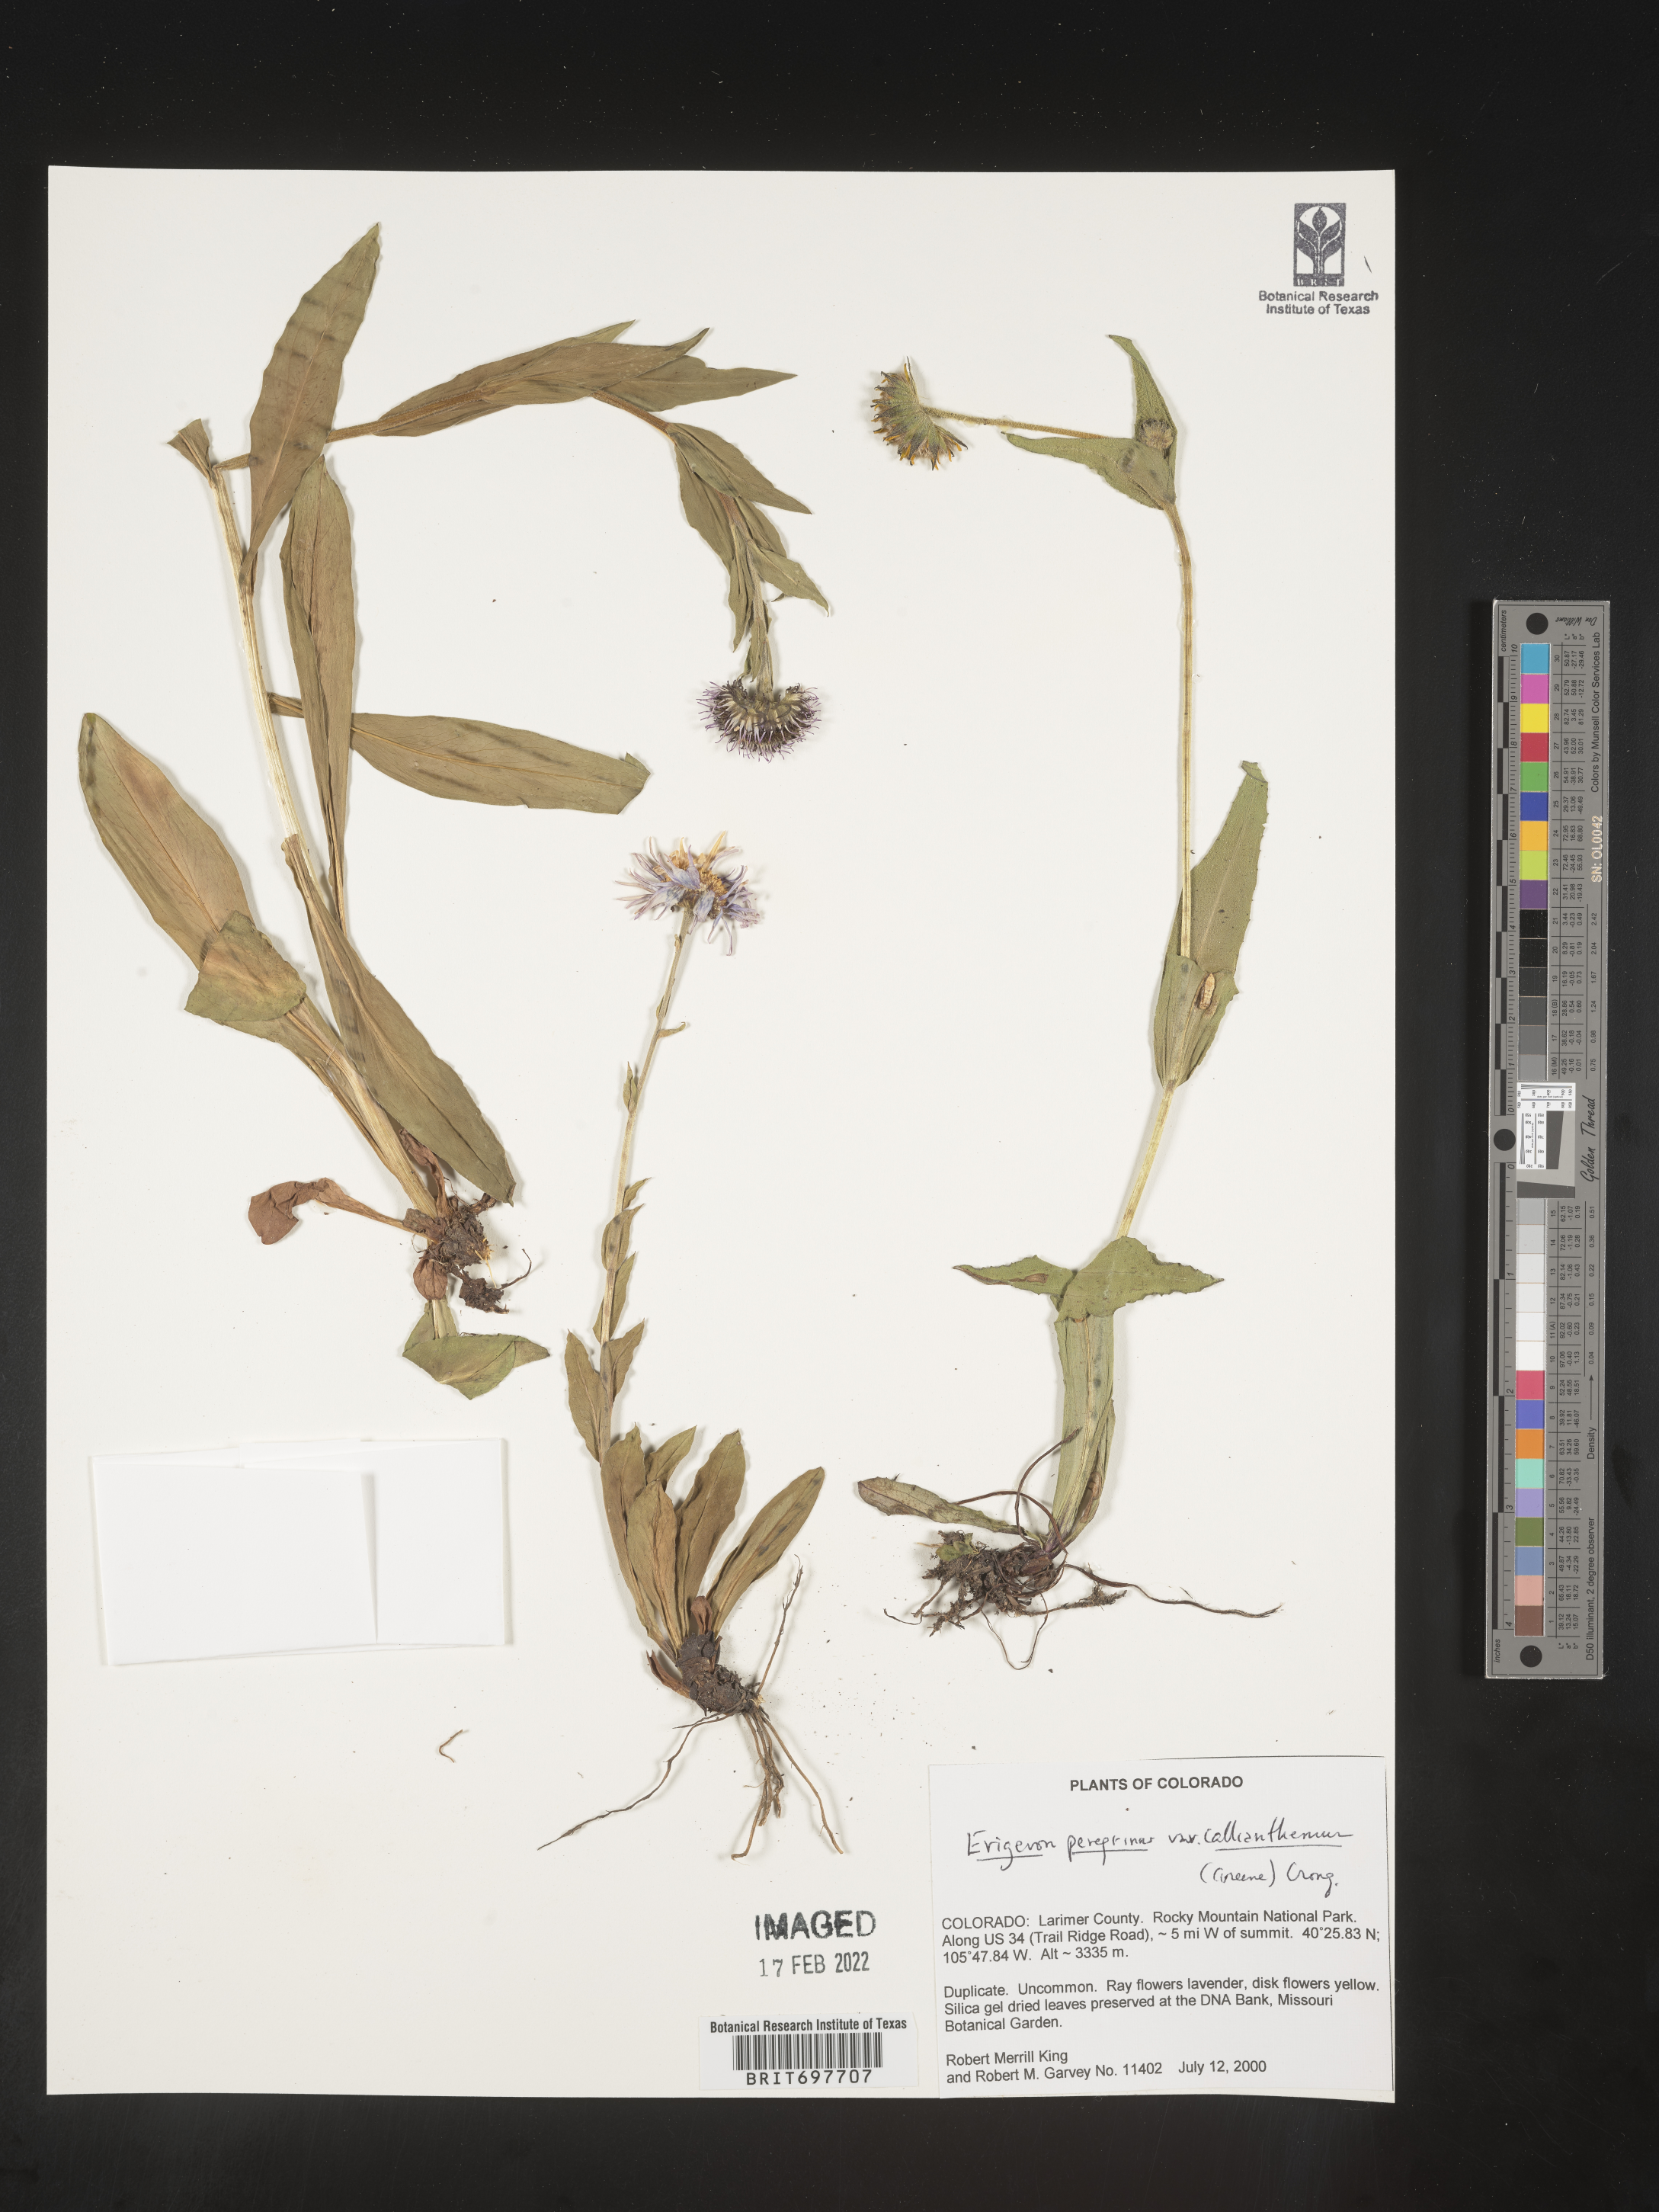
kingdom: Plantae
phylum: Tracheophyta
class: Magnoliopsida
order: Asterales
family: Asteraceae
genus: Erigeron
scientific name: Erigeron glacialis
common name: Subalpine fleabane
